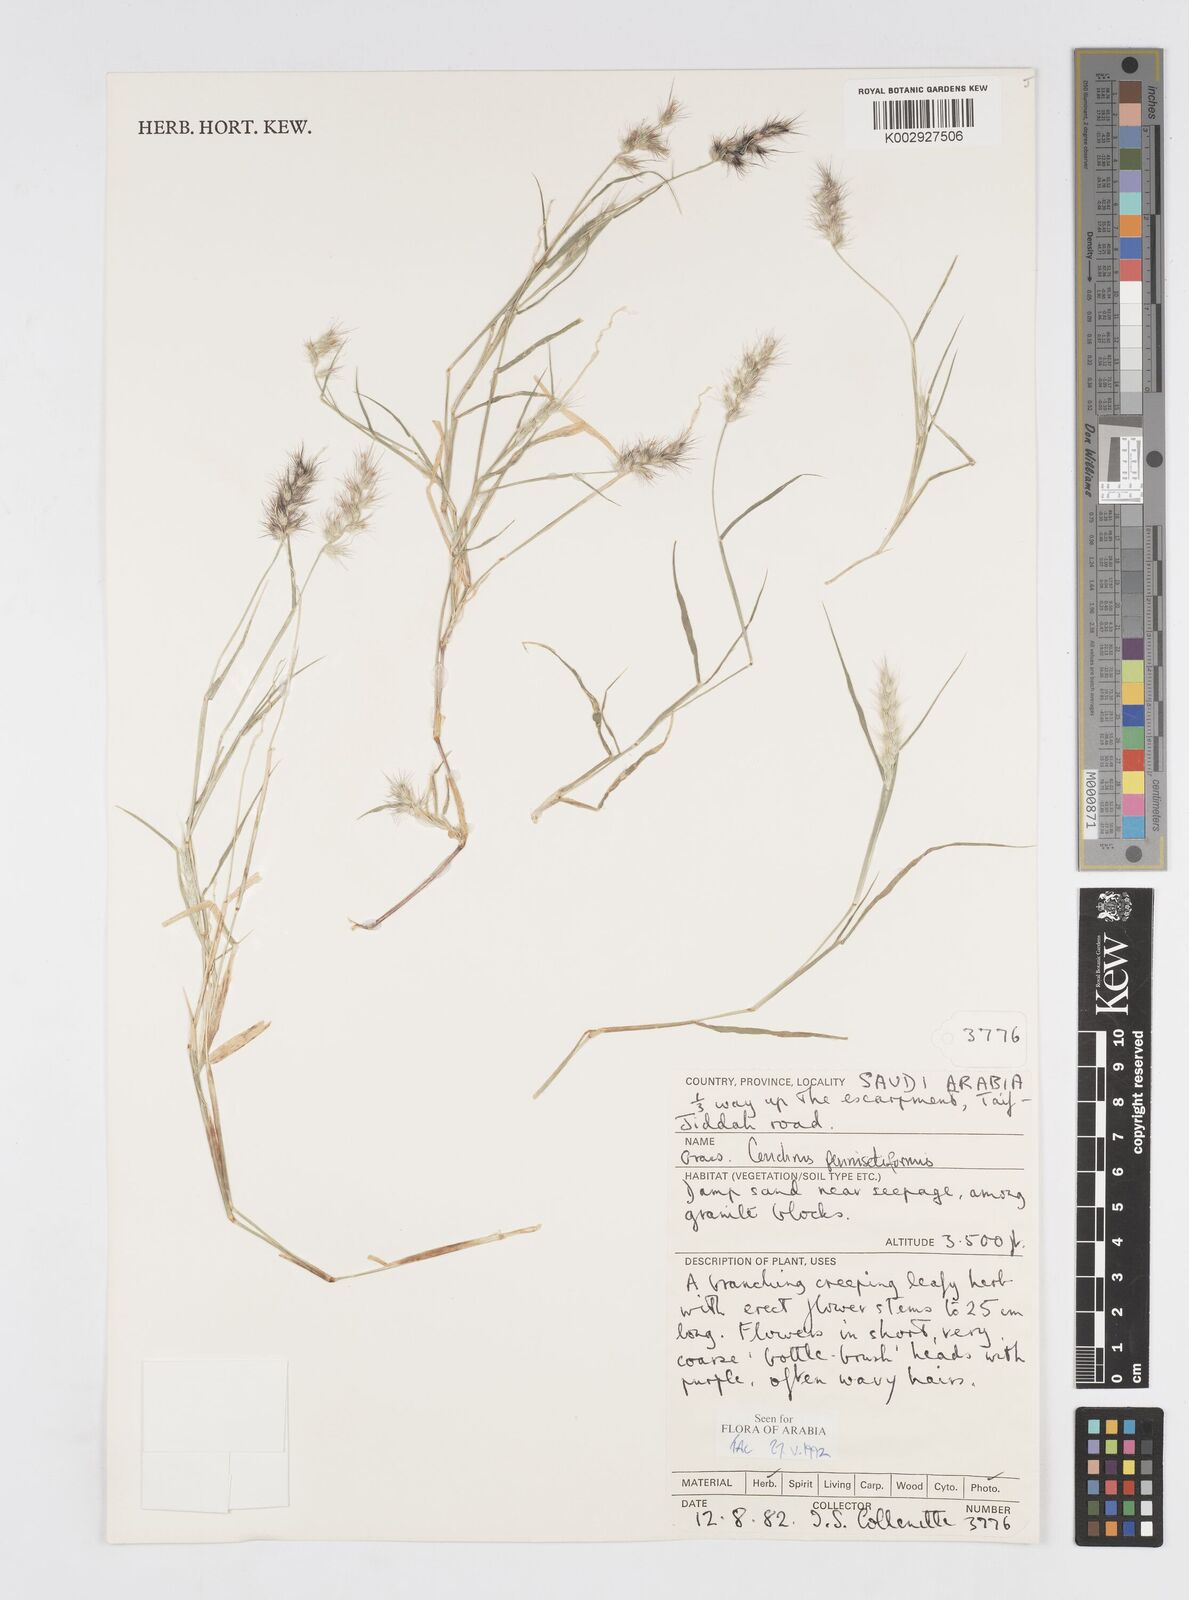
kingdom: Plantae
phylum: Tracheophyta
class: Liliopsida
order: Poales
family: Poaceae
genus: Cenchrus
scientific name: Cenchrus
